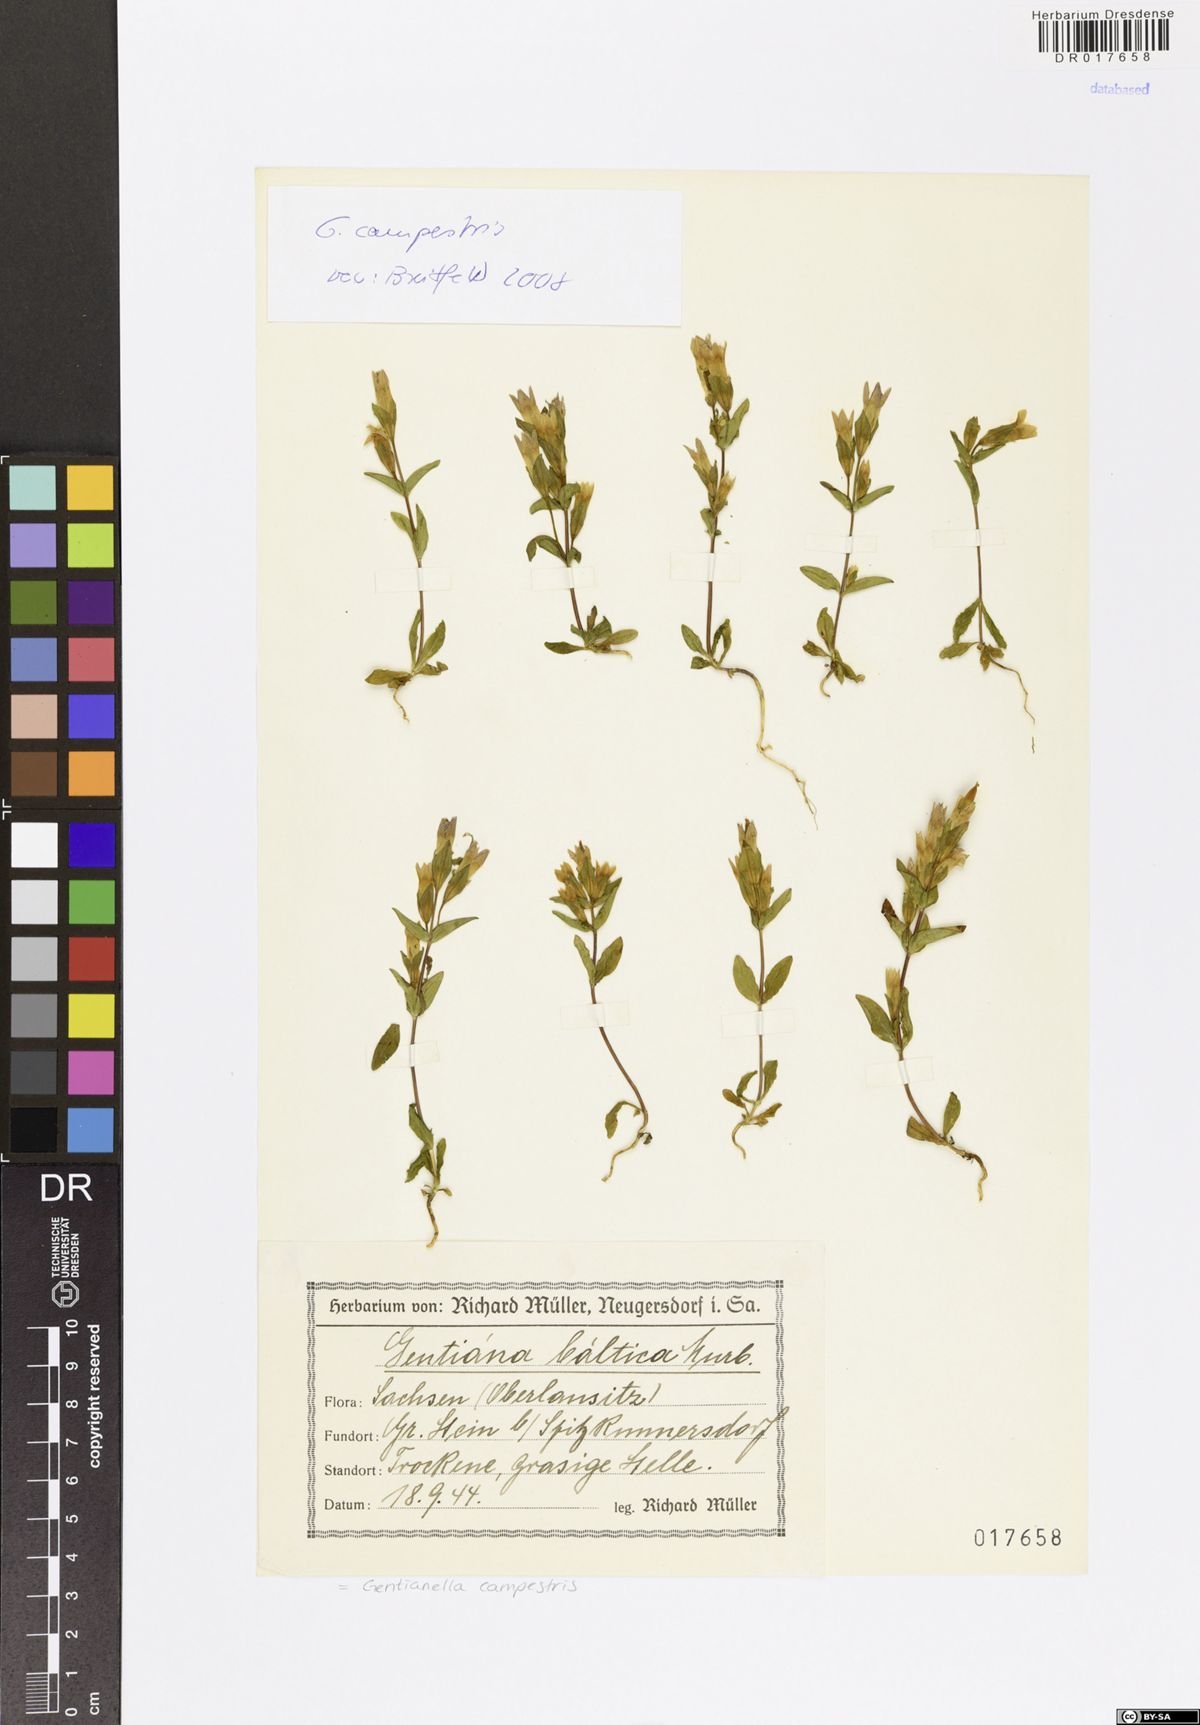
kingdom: Plantae
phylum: Tracheophyta
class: Magnoliopsida
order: Gentianales
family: Gentianaceae
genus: Gentianella
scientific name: Gentianella campestris
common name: Field gentian
